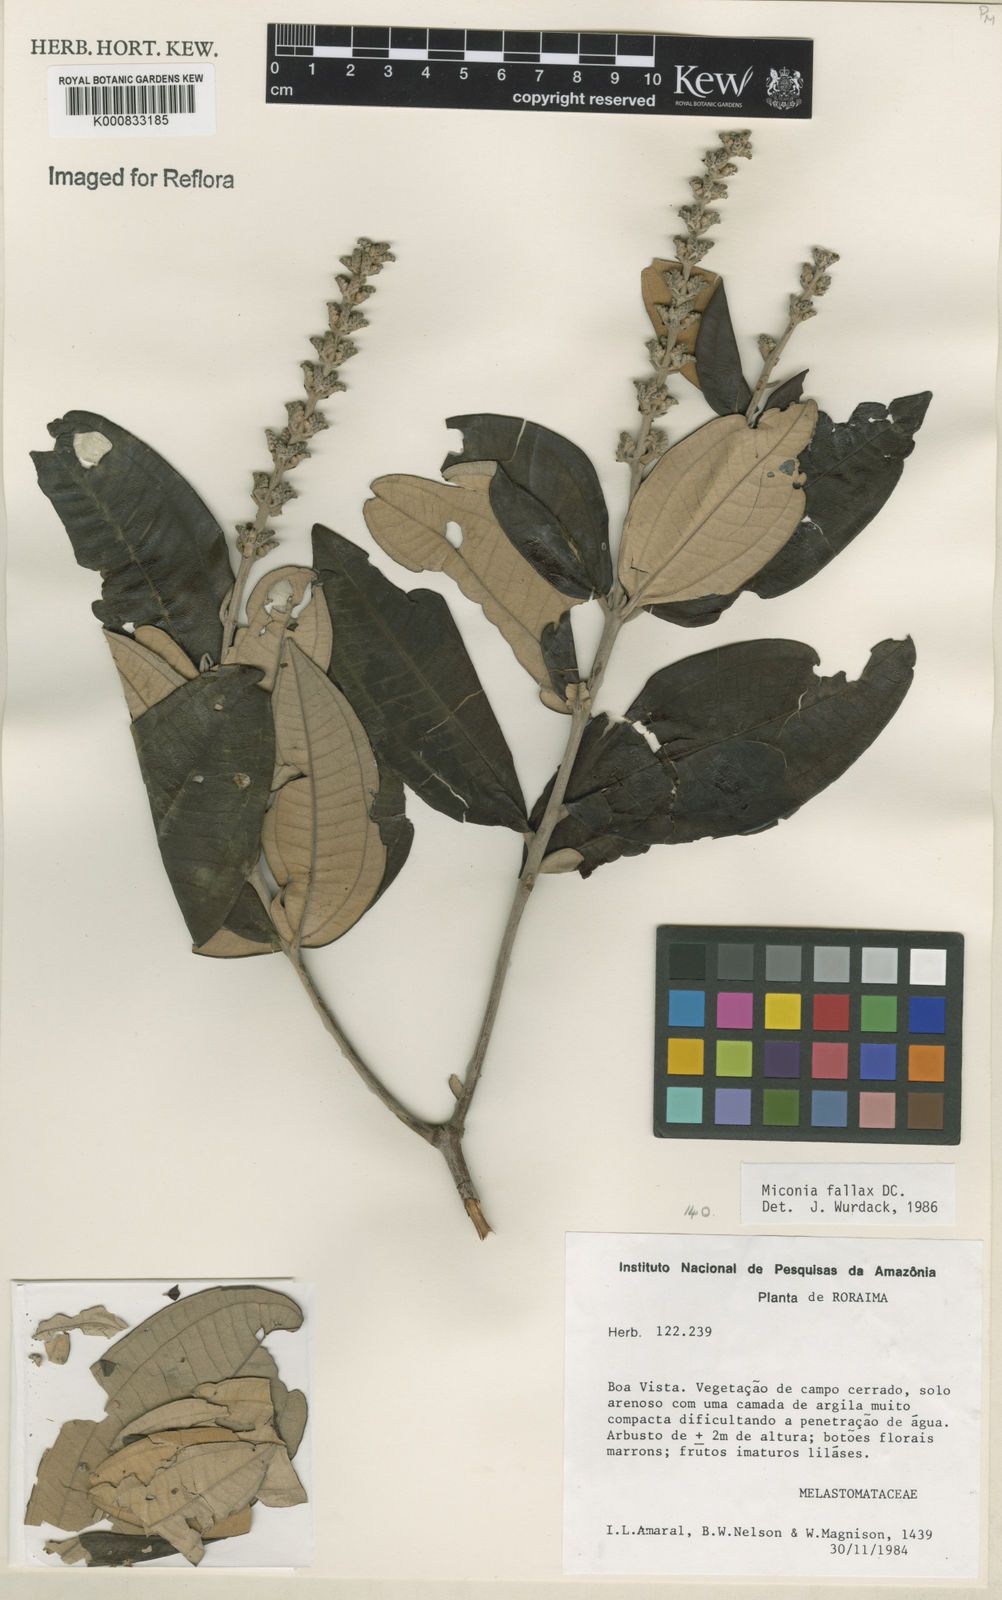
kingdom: Plantae
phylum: Tracheophyta
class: Magnoliopsida
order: Myrtales
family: Melastomataceae
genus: Miconia
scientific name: Miconia fallax
